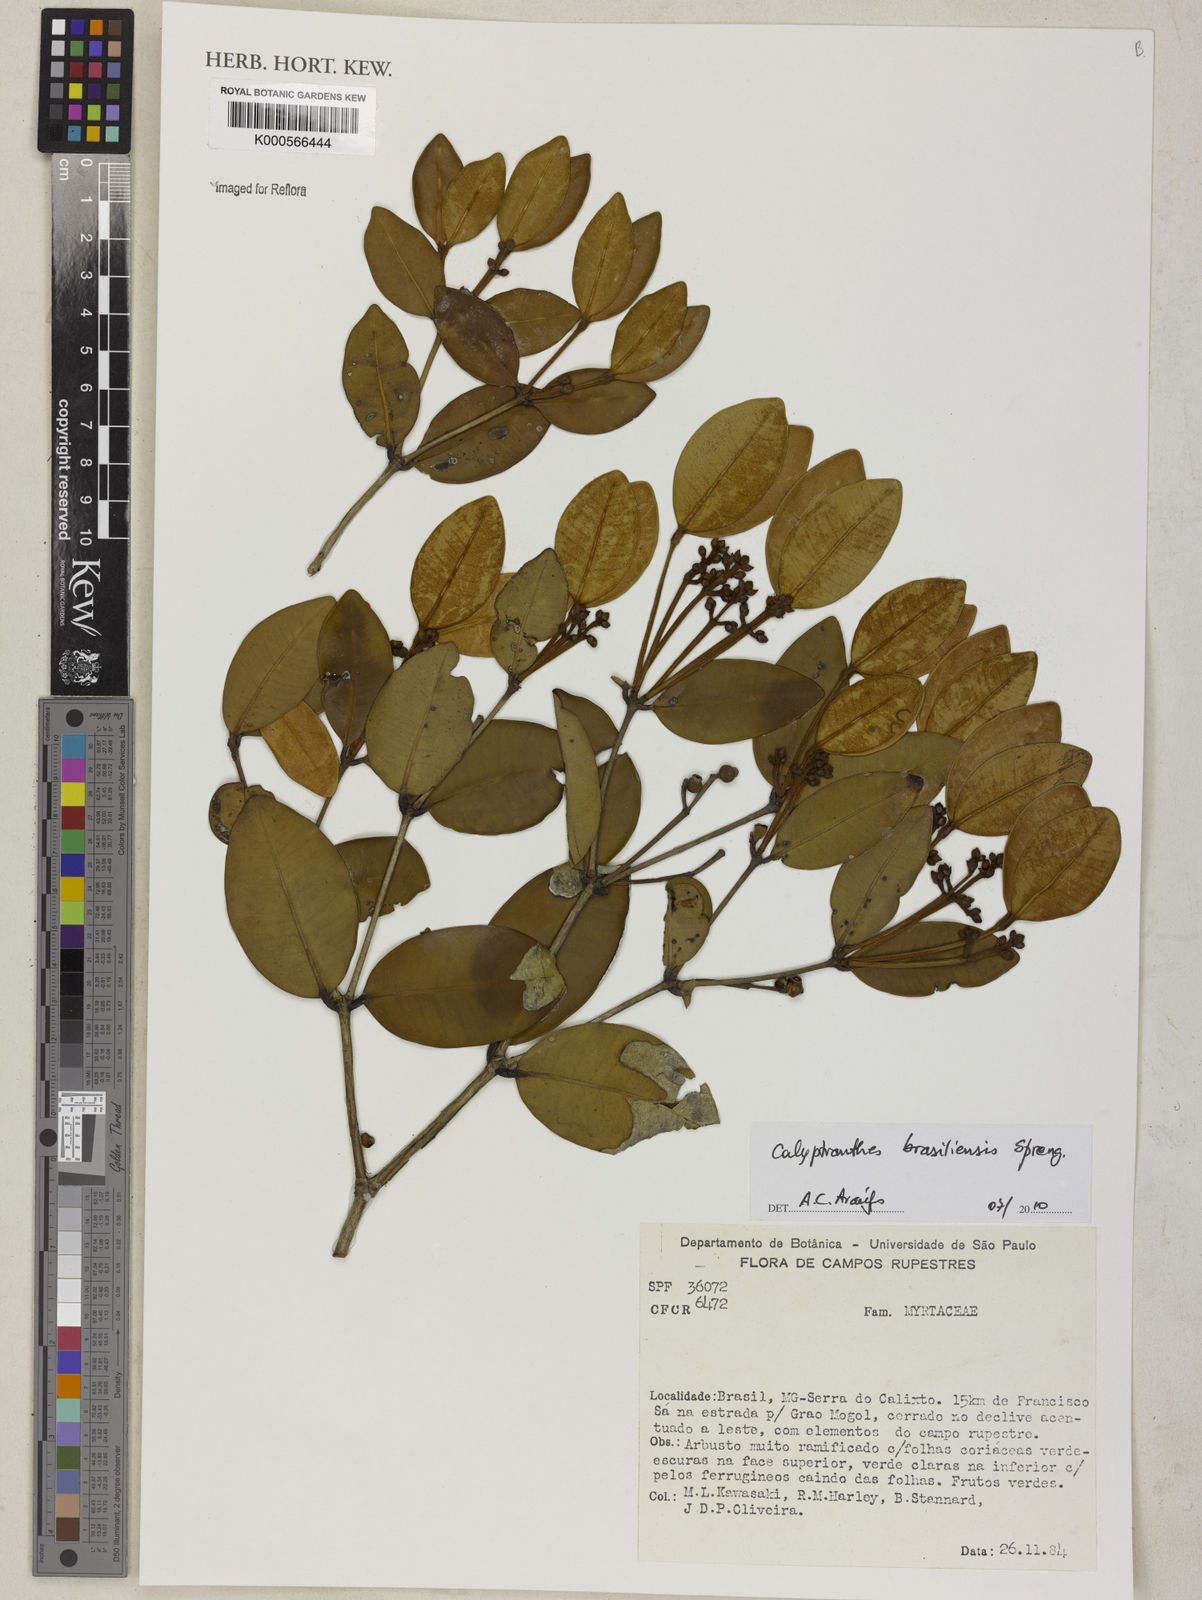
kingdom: Plantae
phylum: Tracheophyta
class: Magnoliopsida
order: Myrtales
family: Myrtaceae
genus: Myrcia
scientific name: Myrcia neobrasiliensis
